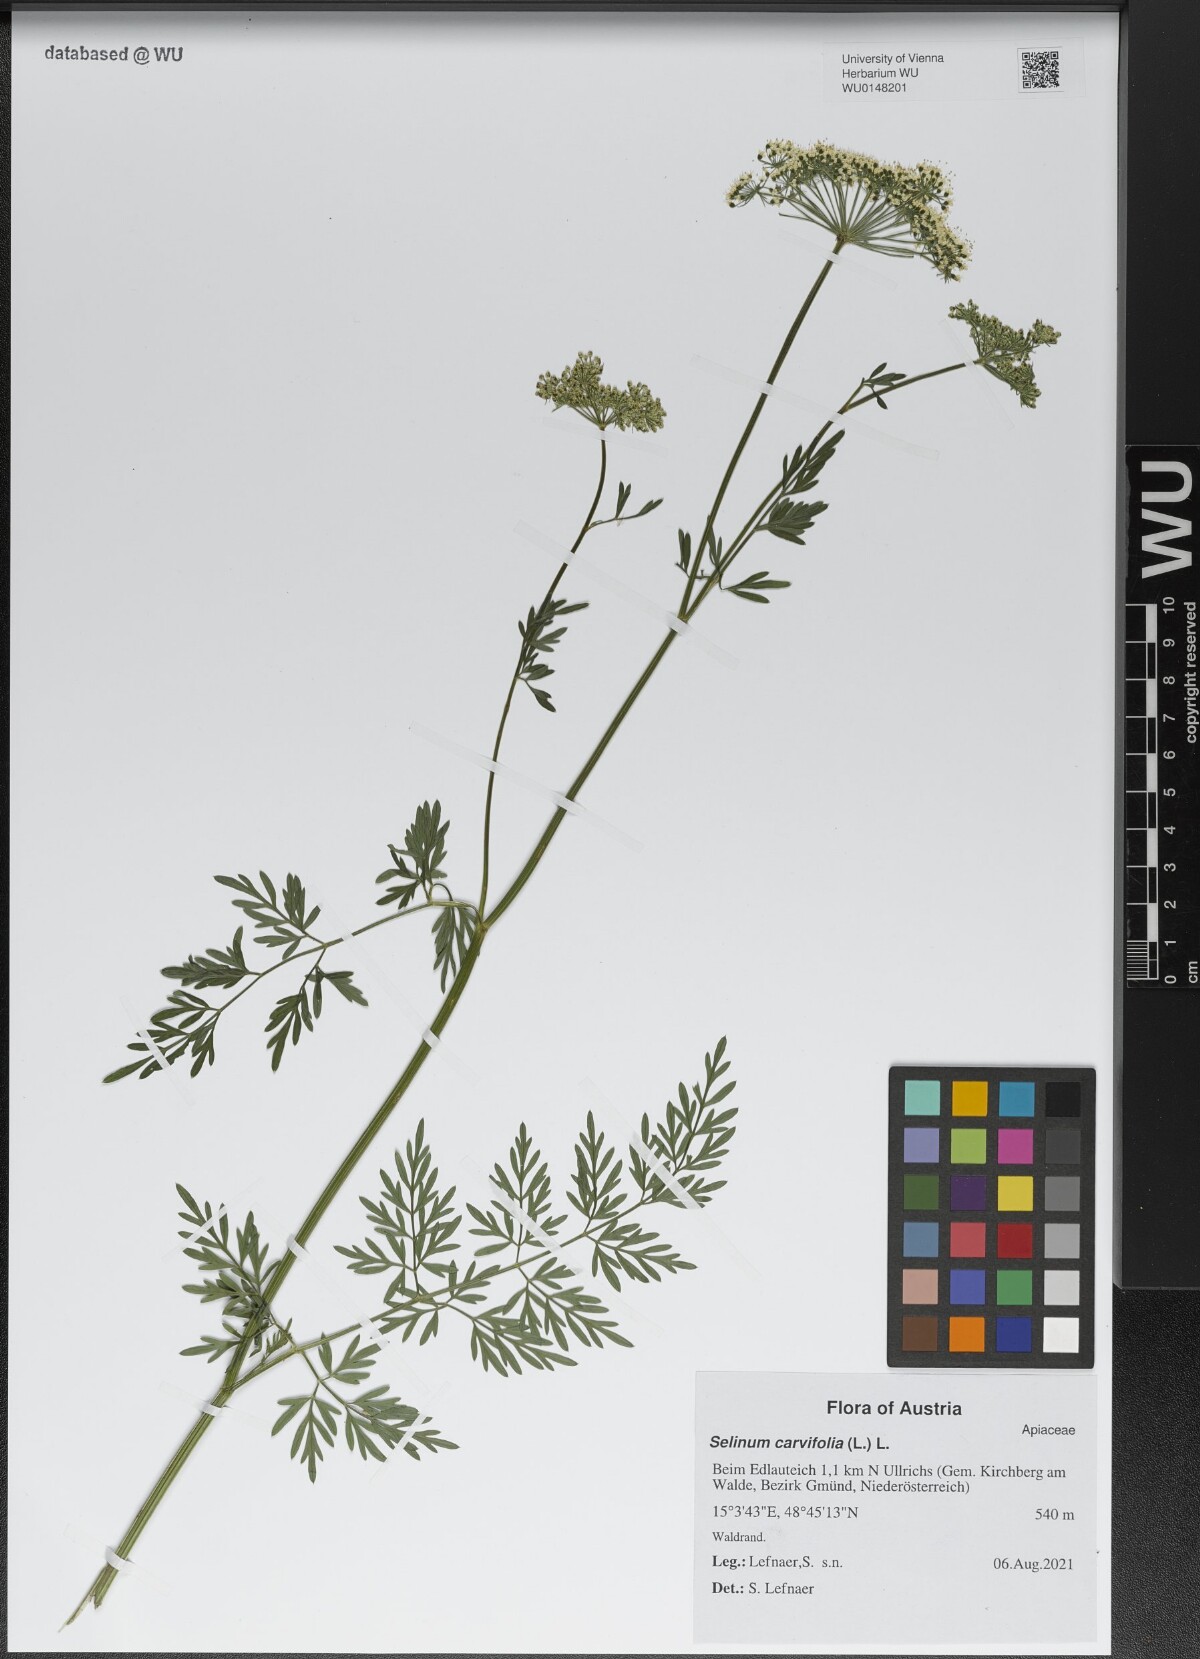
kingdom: Plantae
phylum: Tracheophyta
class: Magnoliopsida
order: Apiales
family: Apiaceae
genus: Selinum
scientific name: Selinum carvifolia
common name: Cambridge milk-parsley
